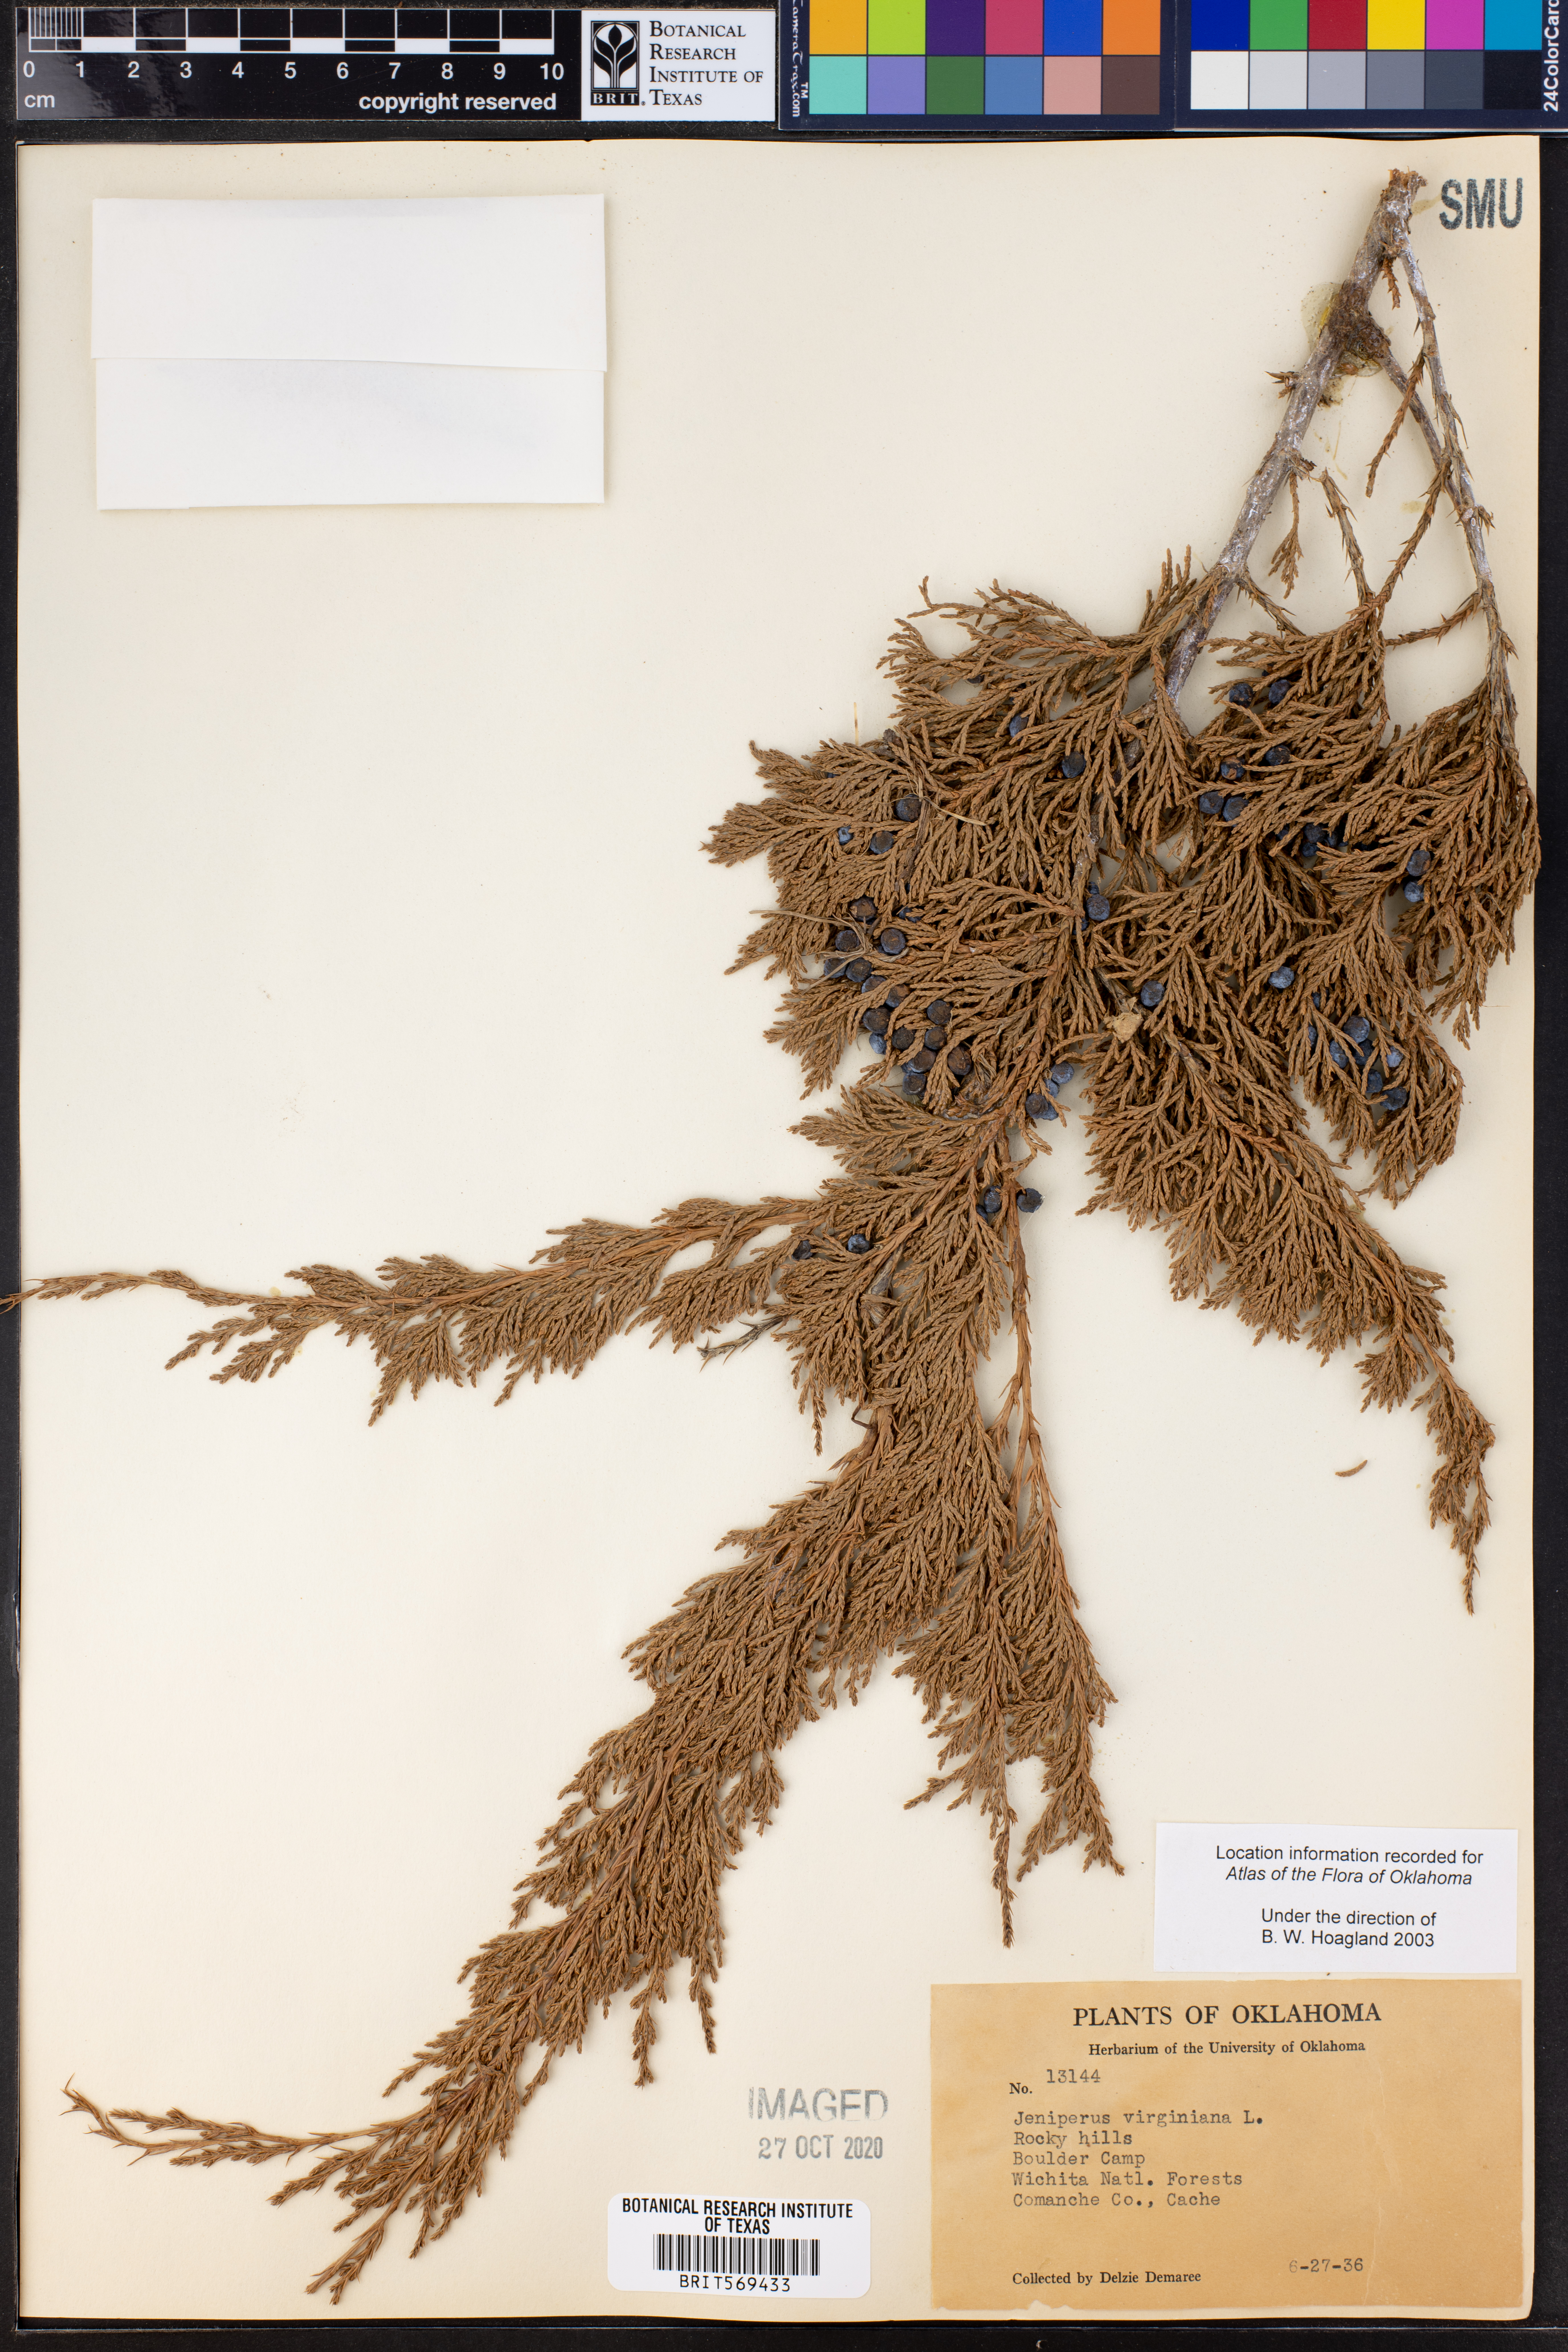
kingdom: Plantae
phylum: Tracheophyta
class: Pinopsida
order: Pinales
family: Cupressaceae
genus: Juniperus
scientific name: Juniperus virginiana
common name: Red juniper
